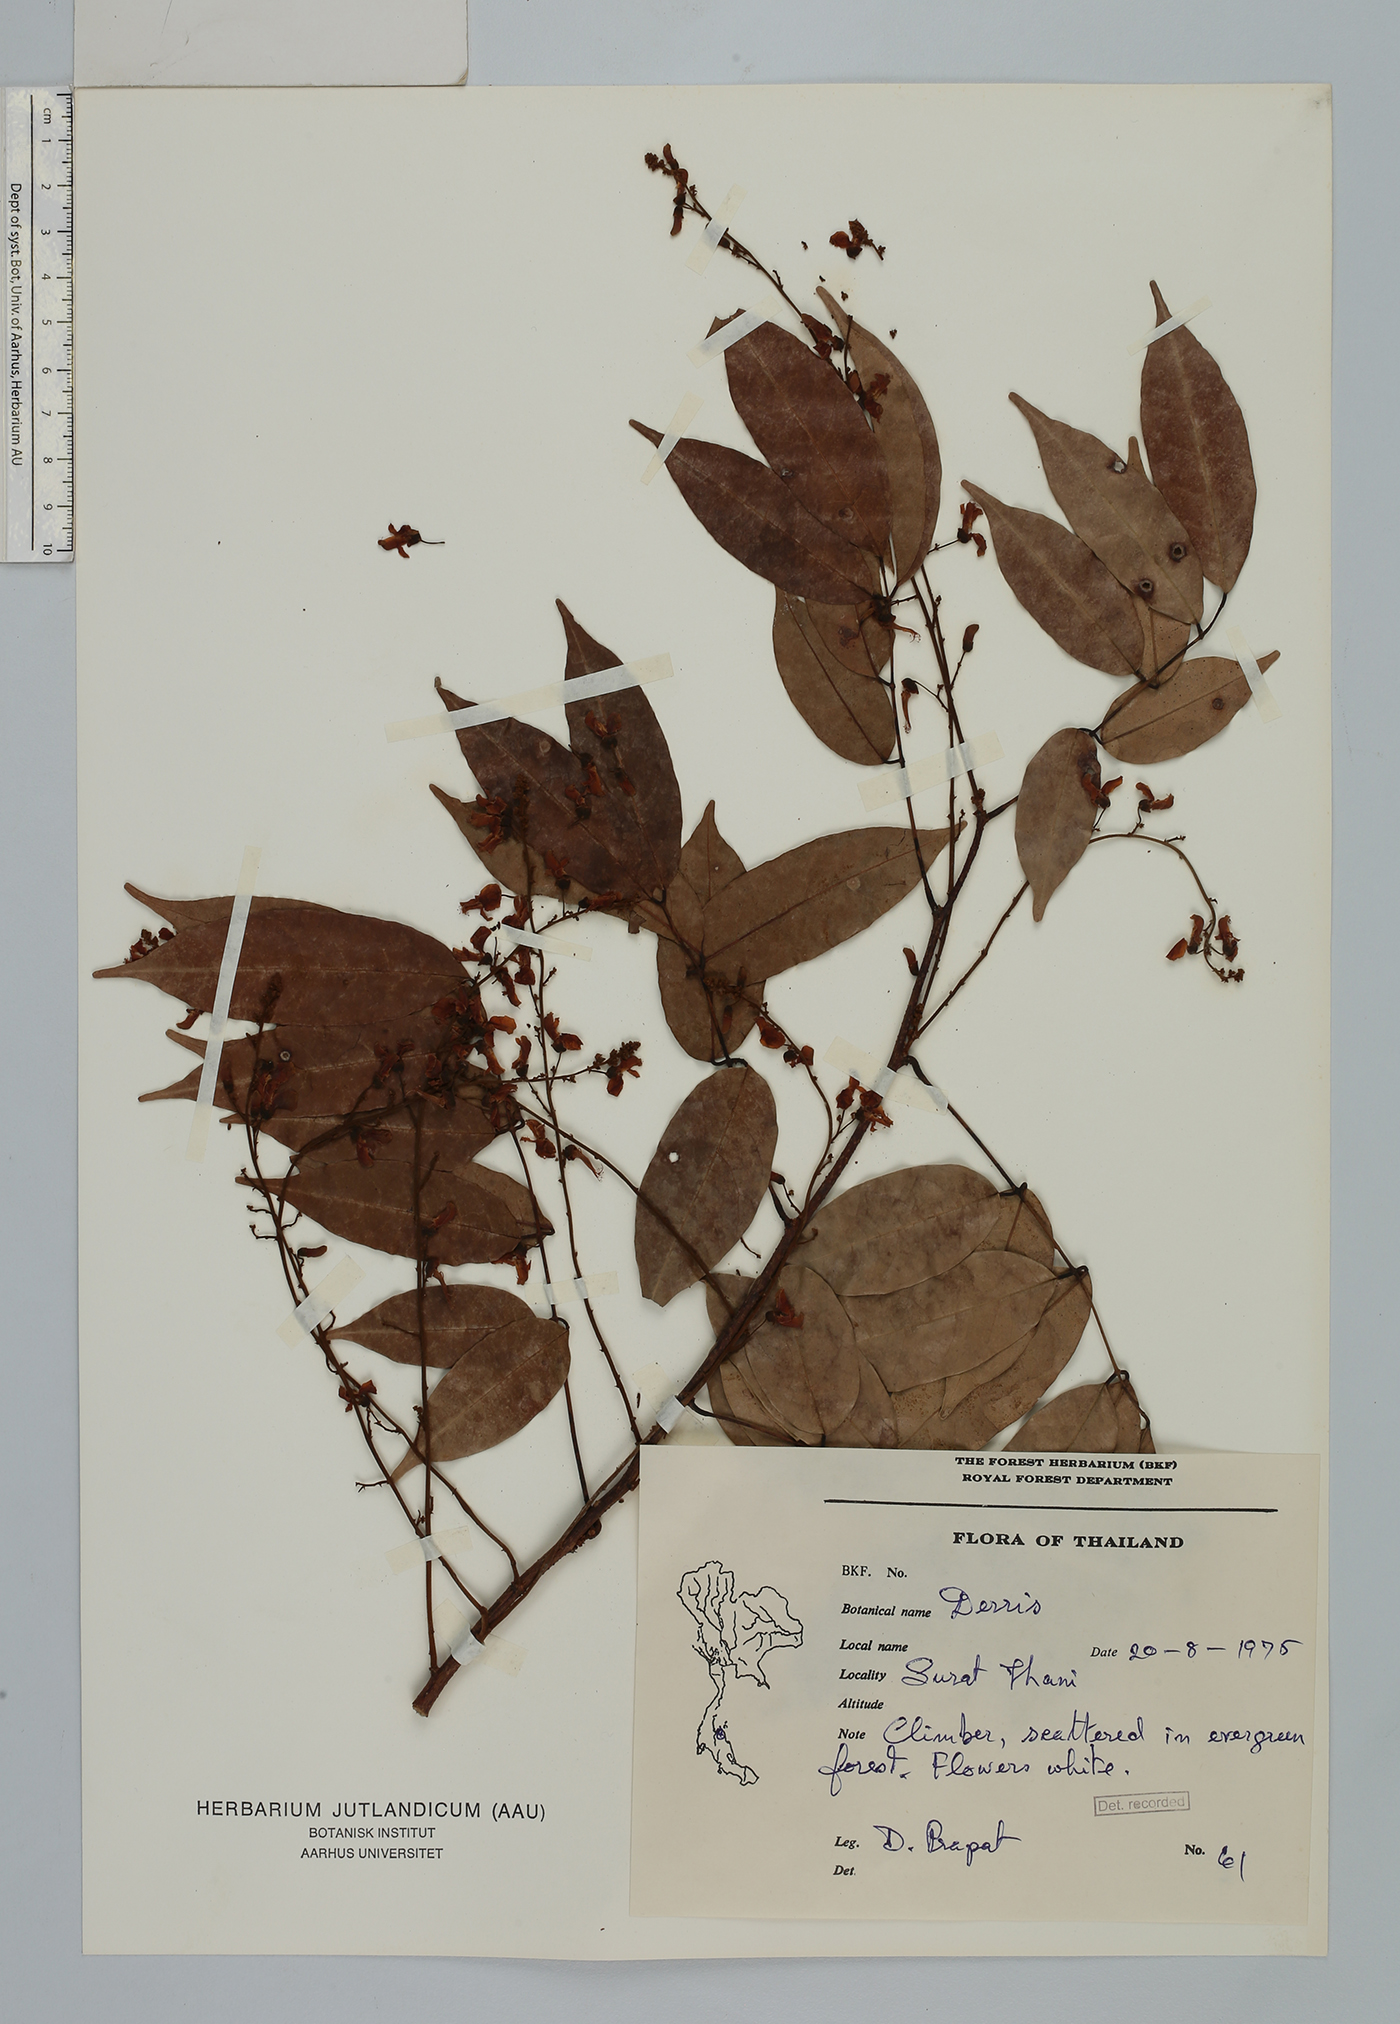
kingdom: Plantae
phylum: Tracheophyta
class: Magnoliopsida
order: Fabales
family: Fabaceae
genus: Derris
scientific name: Derris
